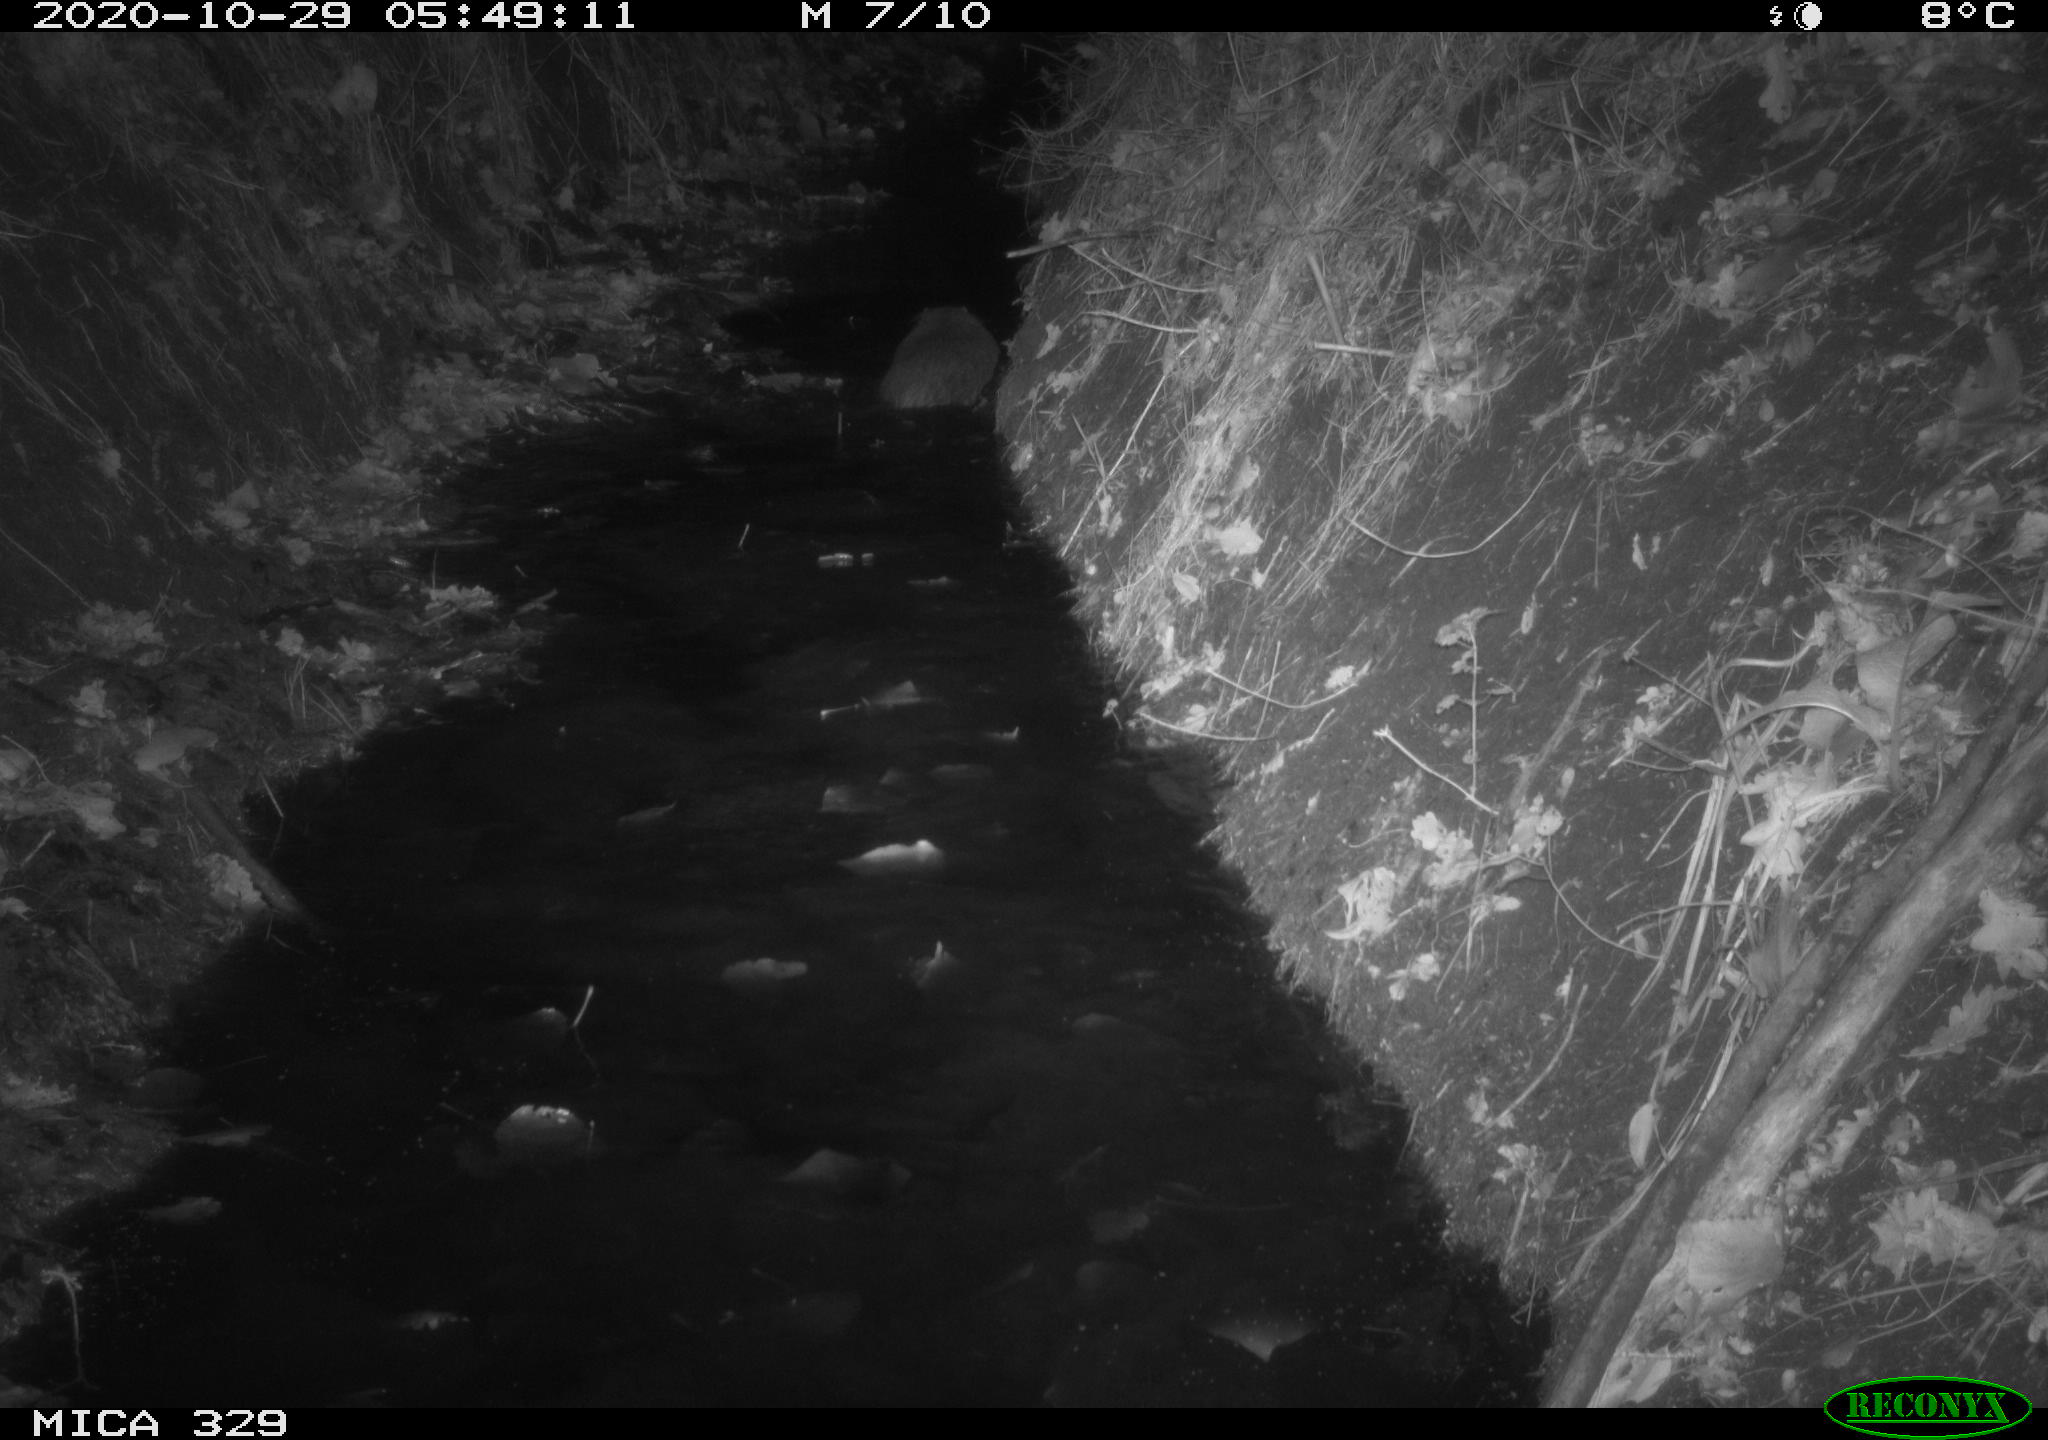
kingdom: Animalia
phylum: Chordata
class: Mammalia
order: Rodentia
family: Myocastoridae
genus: Myocastor
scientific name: Myocastor coypus
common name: Coypu
